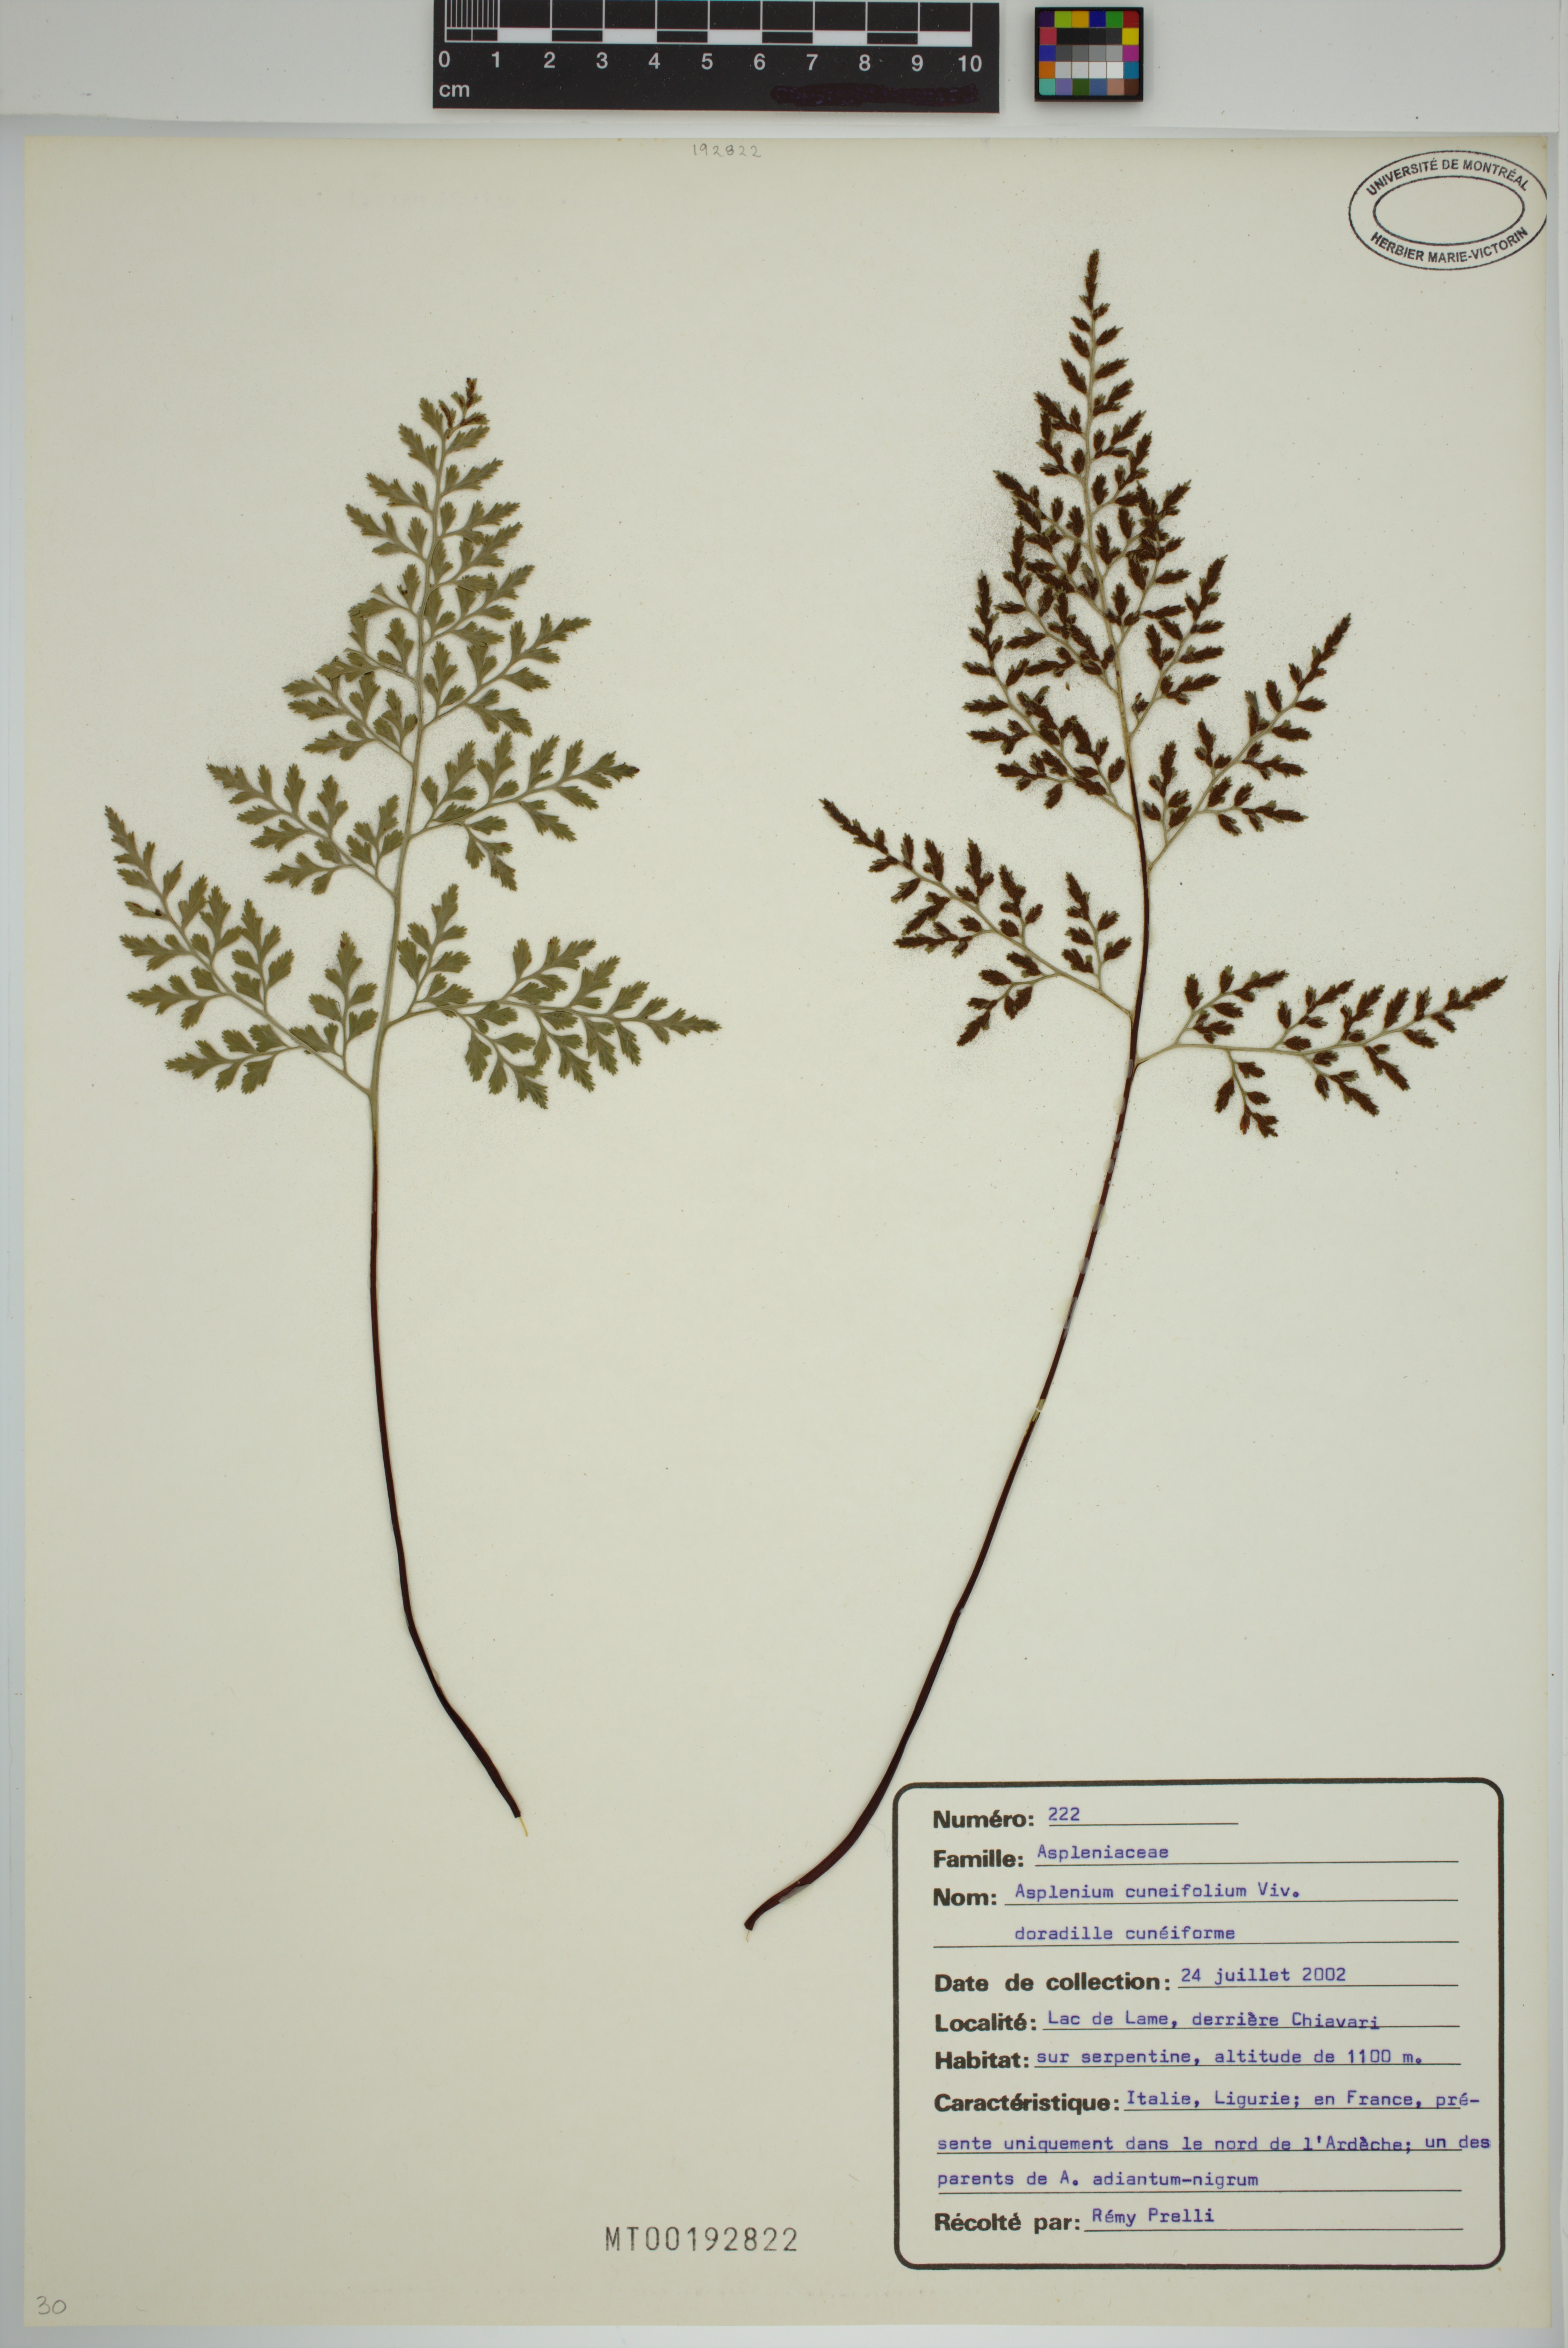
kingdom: Plantae
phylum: Tracheophyta
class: Polypodiopsida
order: Polypodiales
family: Aspleniaceae
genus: Asplenium
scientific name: Asplenium cuneifolium
